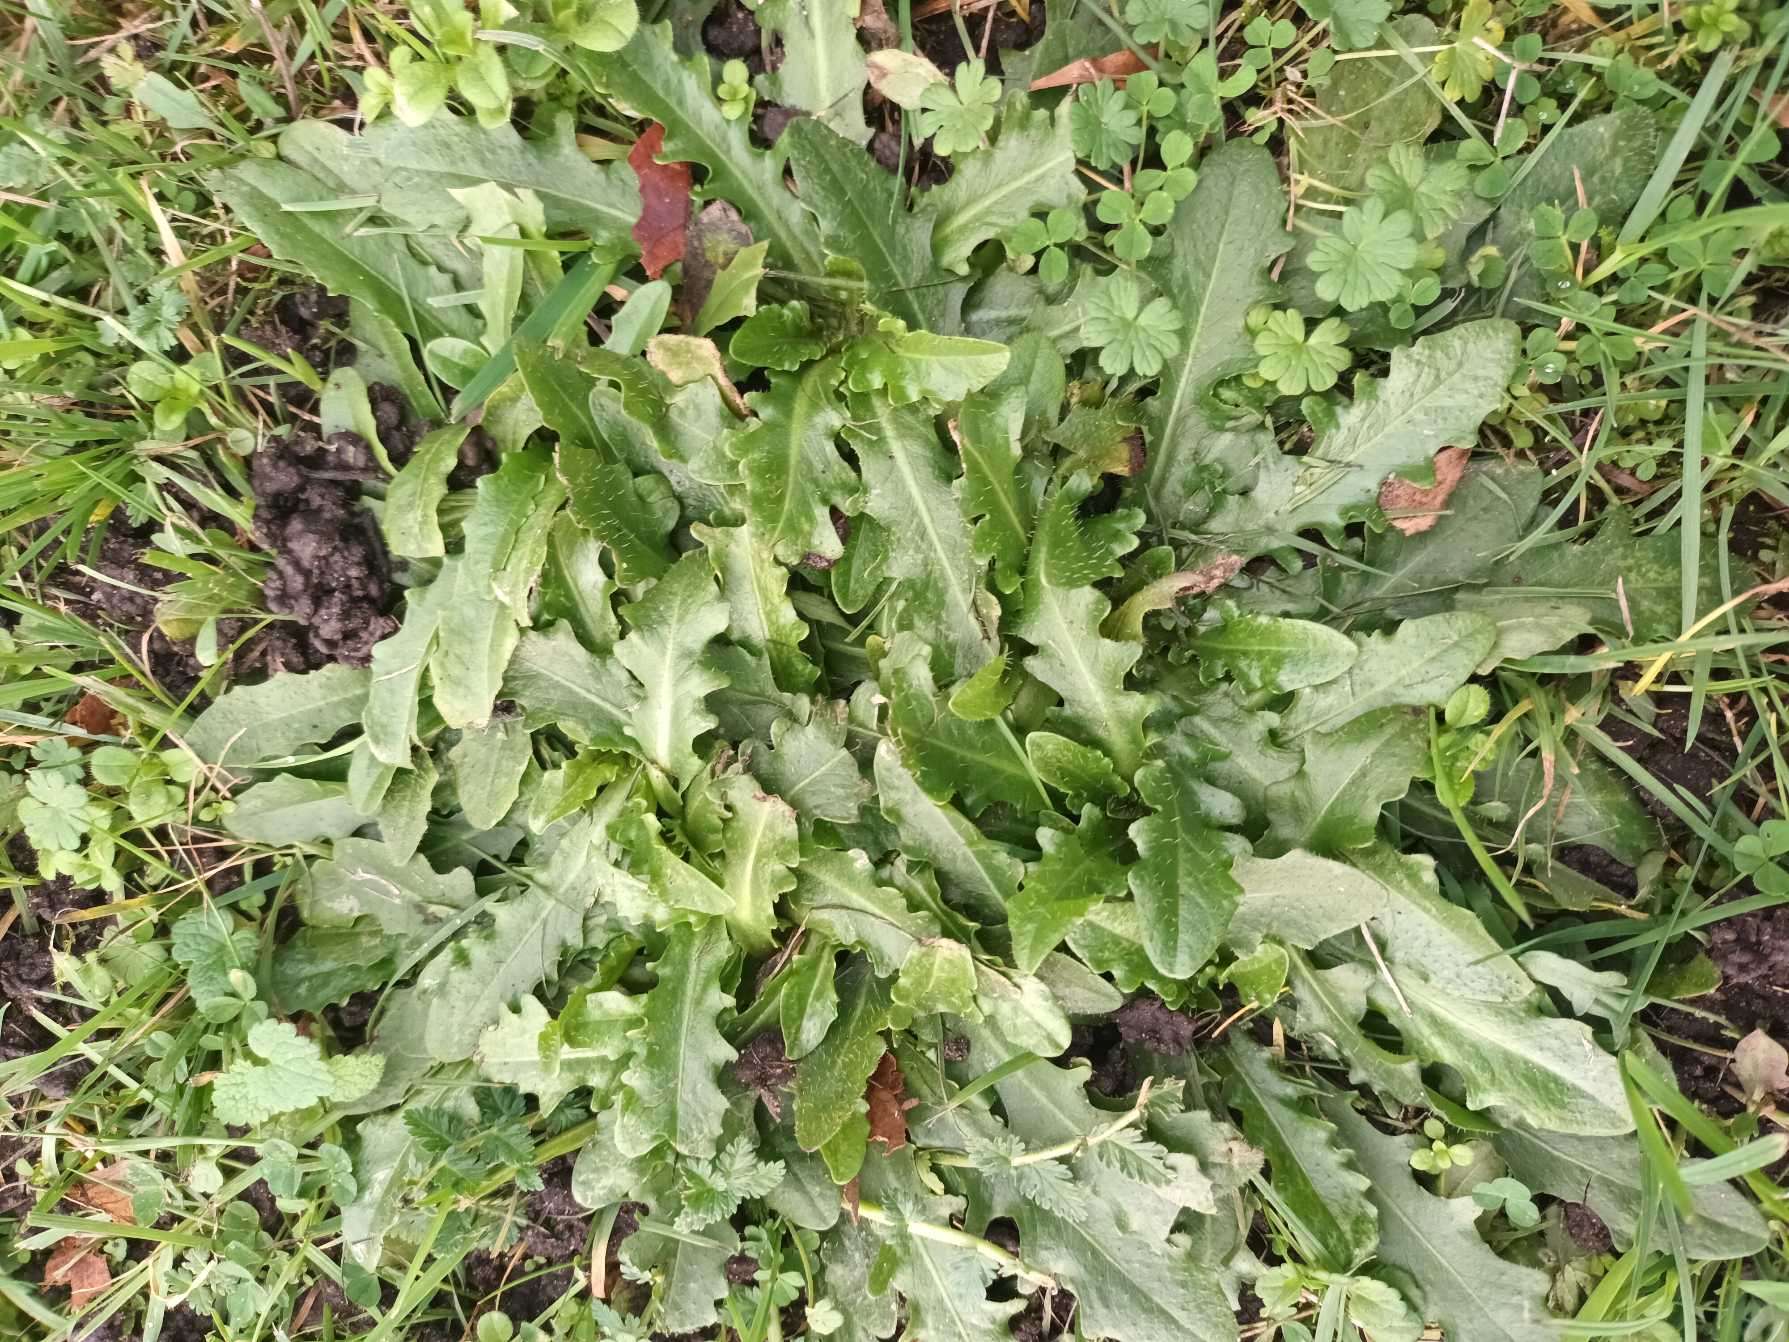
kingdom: Plantae
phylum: Tracheophyta
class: Magnoliopsida
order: Asterales
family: Asteraceae
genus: Hypochaeris
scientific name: Hypochaeris radicata
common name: Almindelig kongepen
